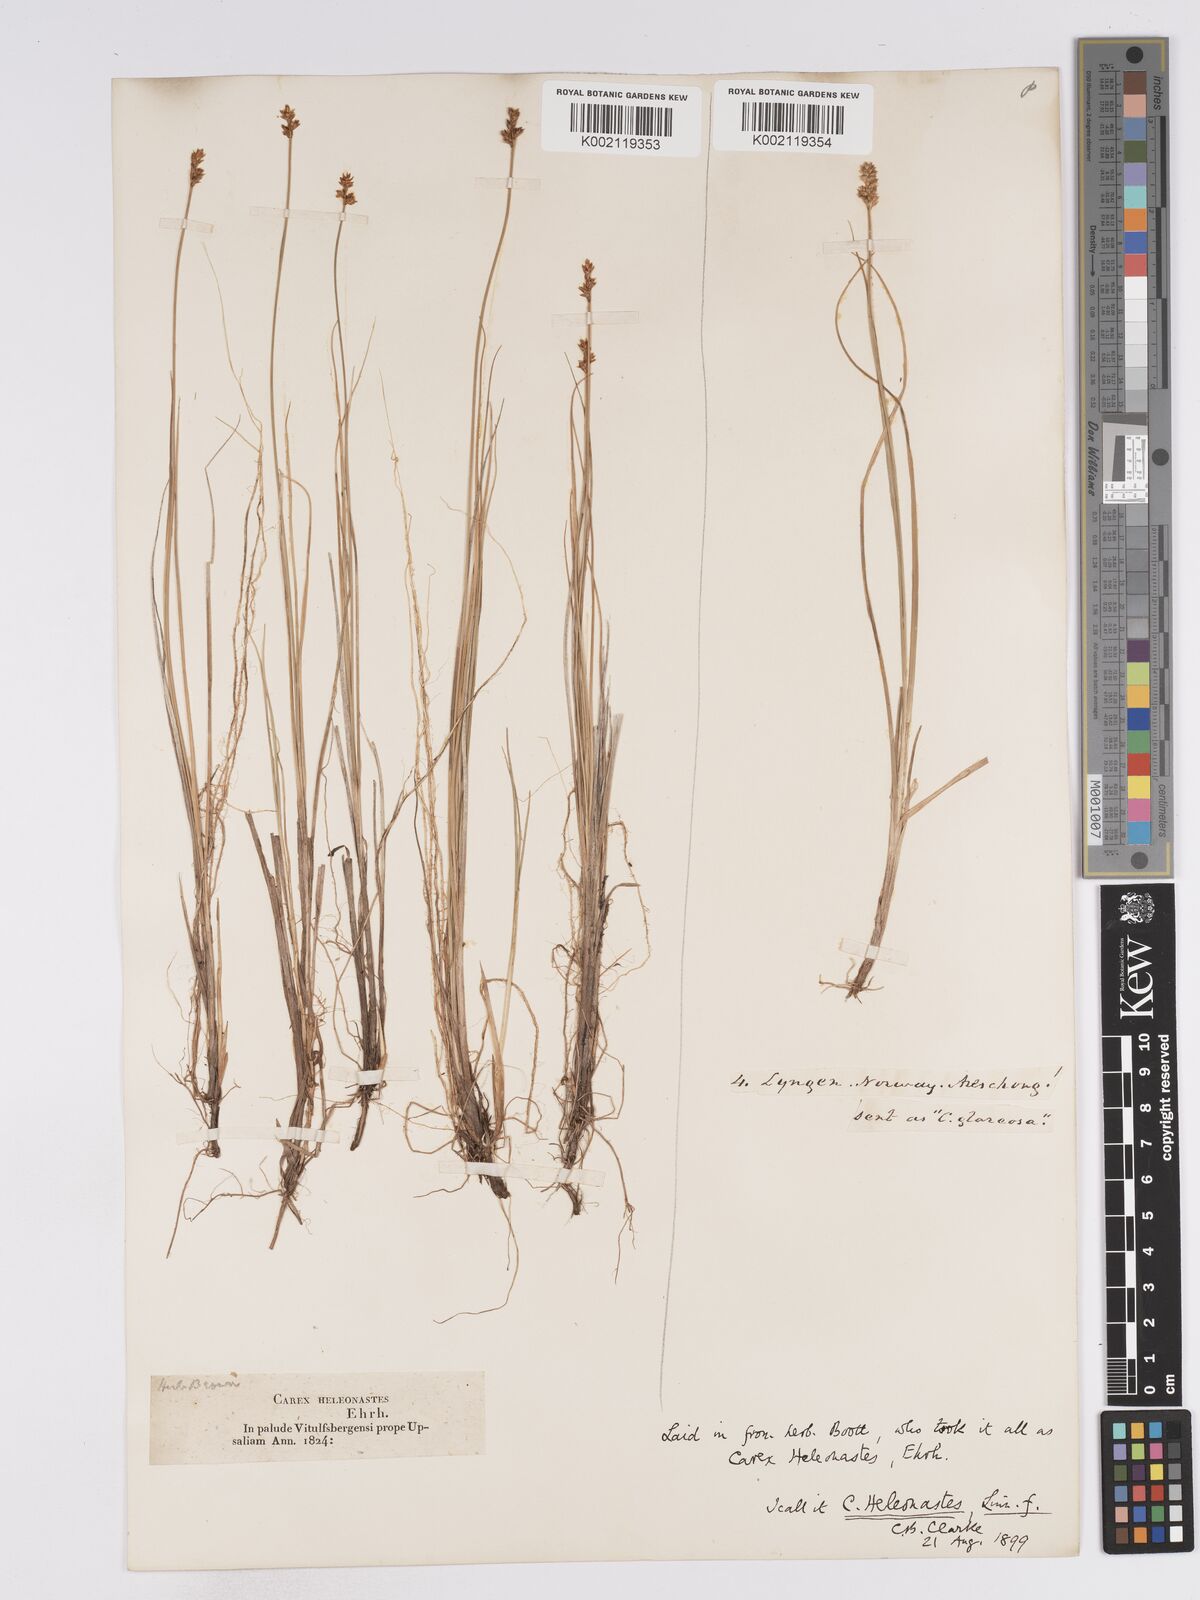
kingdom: Plantae
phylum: Tracheophyta
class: Liliopsida
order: Poales
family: Cyperaceae
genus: Carex
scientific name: Carex heleonastes
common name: Hudson bay sedge
